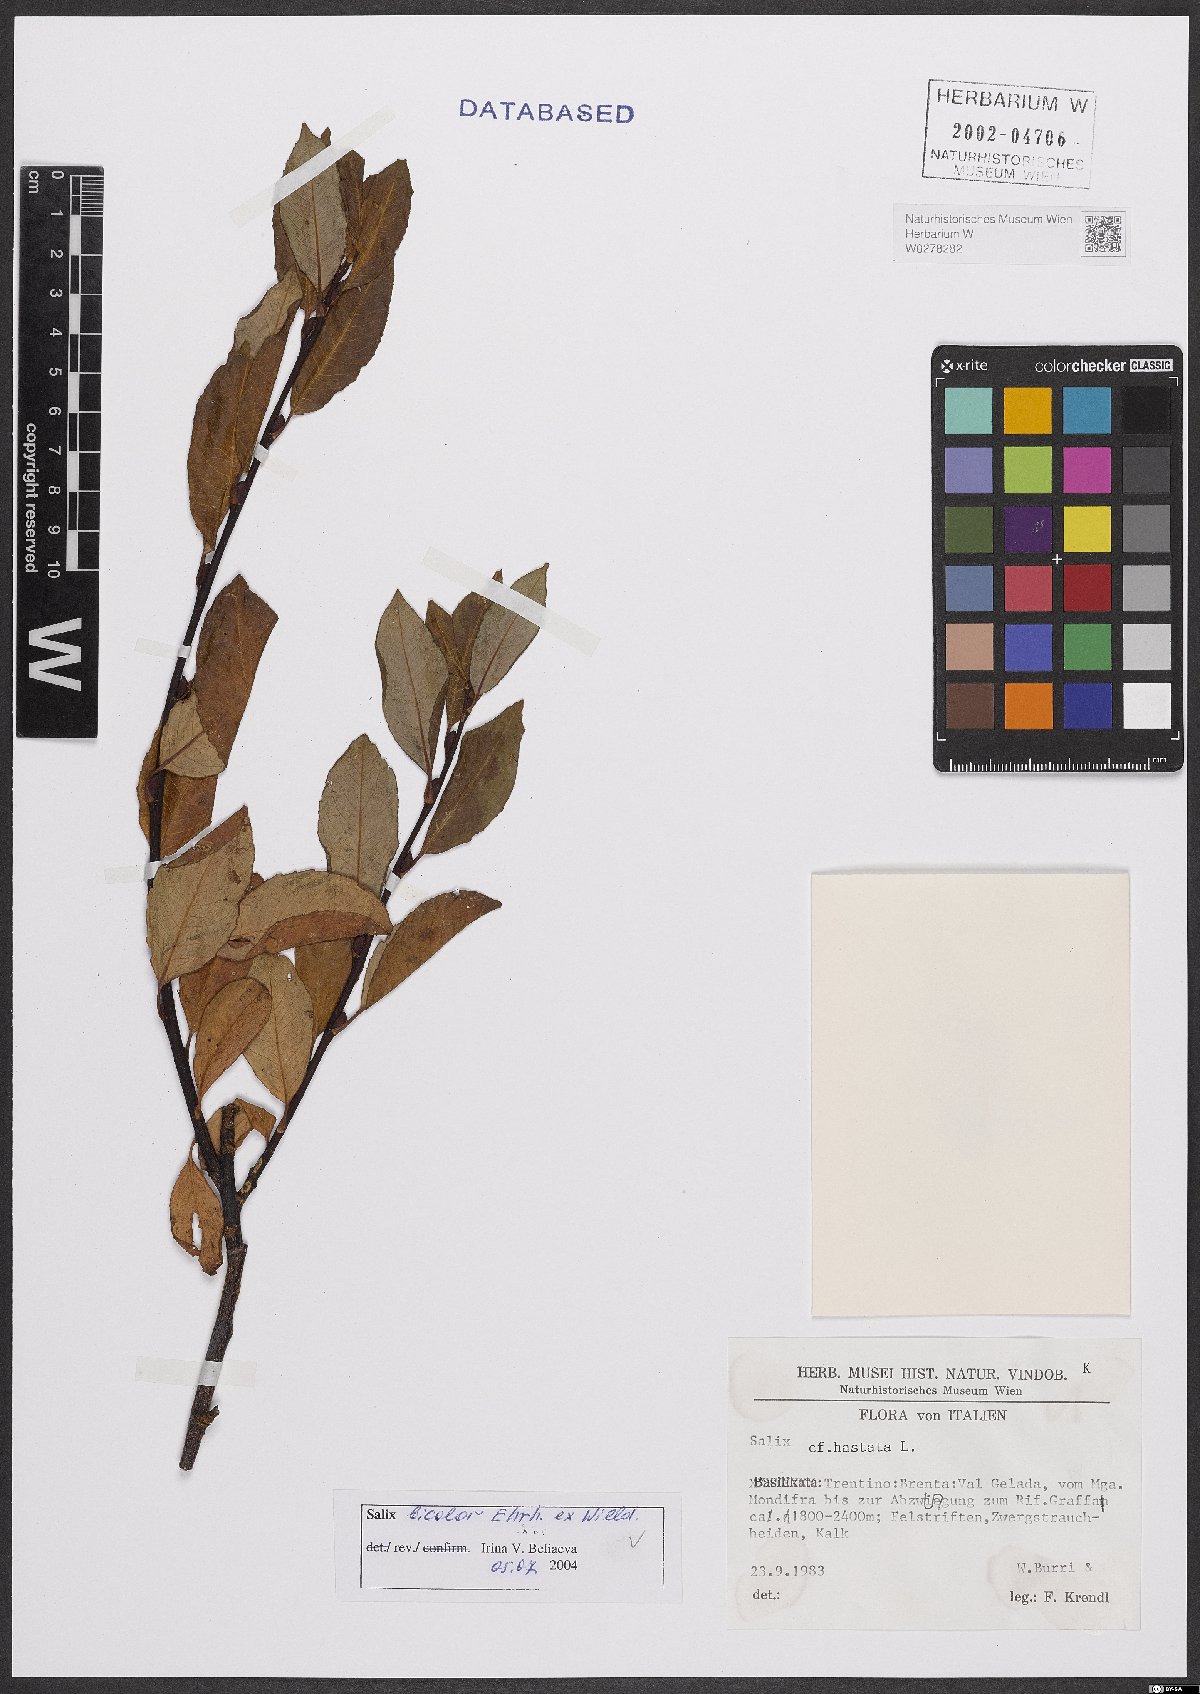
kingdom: Plantae
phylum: Tracheophyta
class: Magnoliopsida
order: Malpighiales
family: Salicaceae
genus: Salix
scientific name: Salix bicolor
